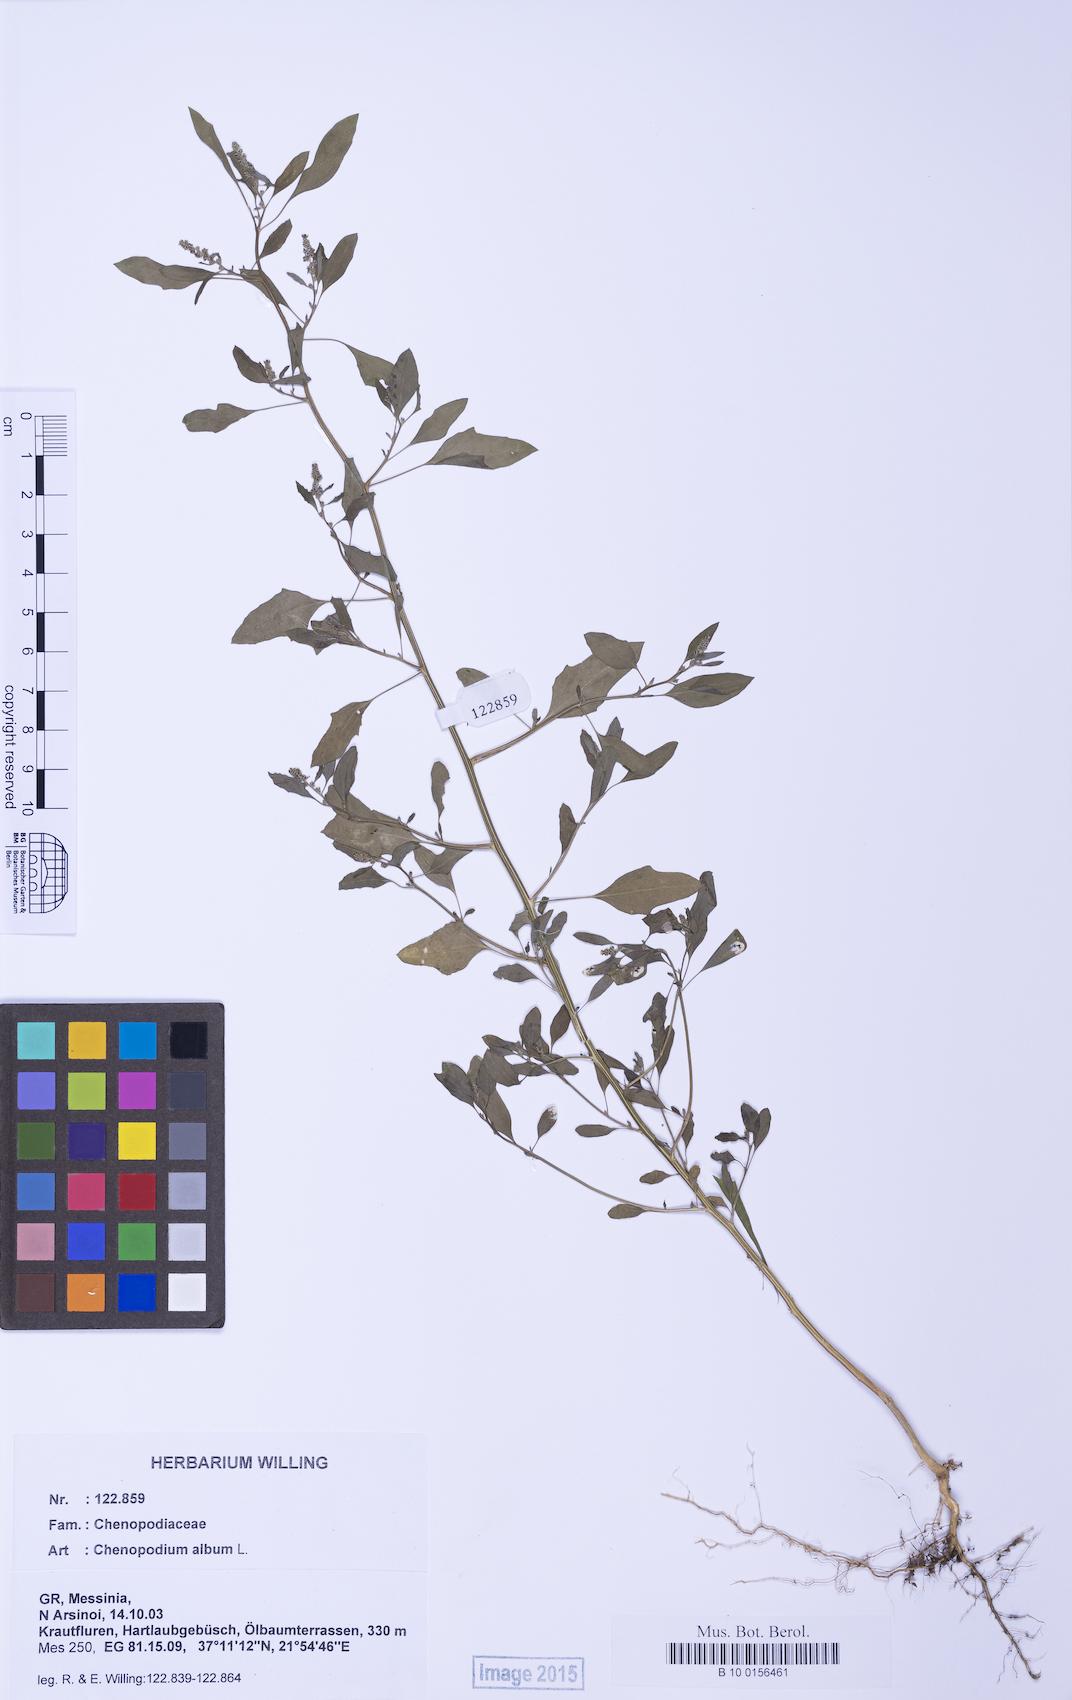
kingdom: Plantae
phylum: Tracheophyta
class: Magnoliopsida
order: Caryophyllales
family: Amaranthaceae
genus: Chenopodium
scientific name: Chenopodium striatiforme
